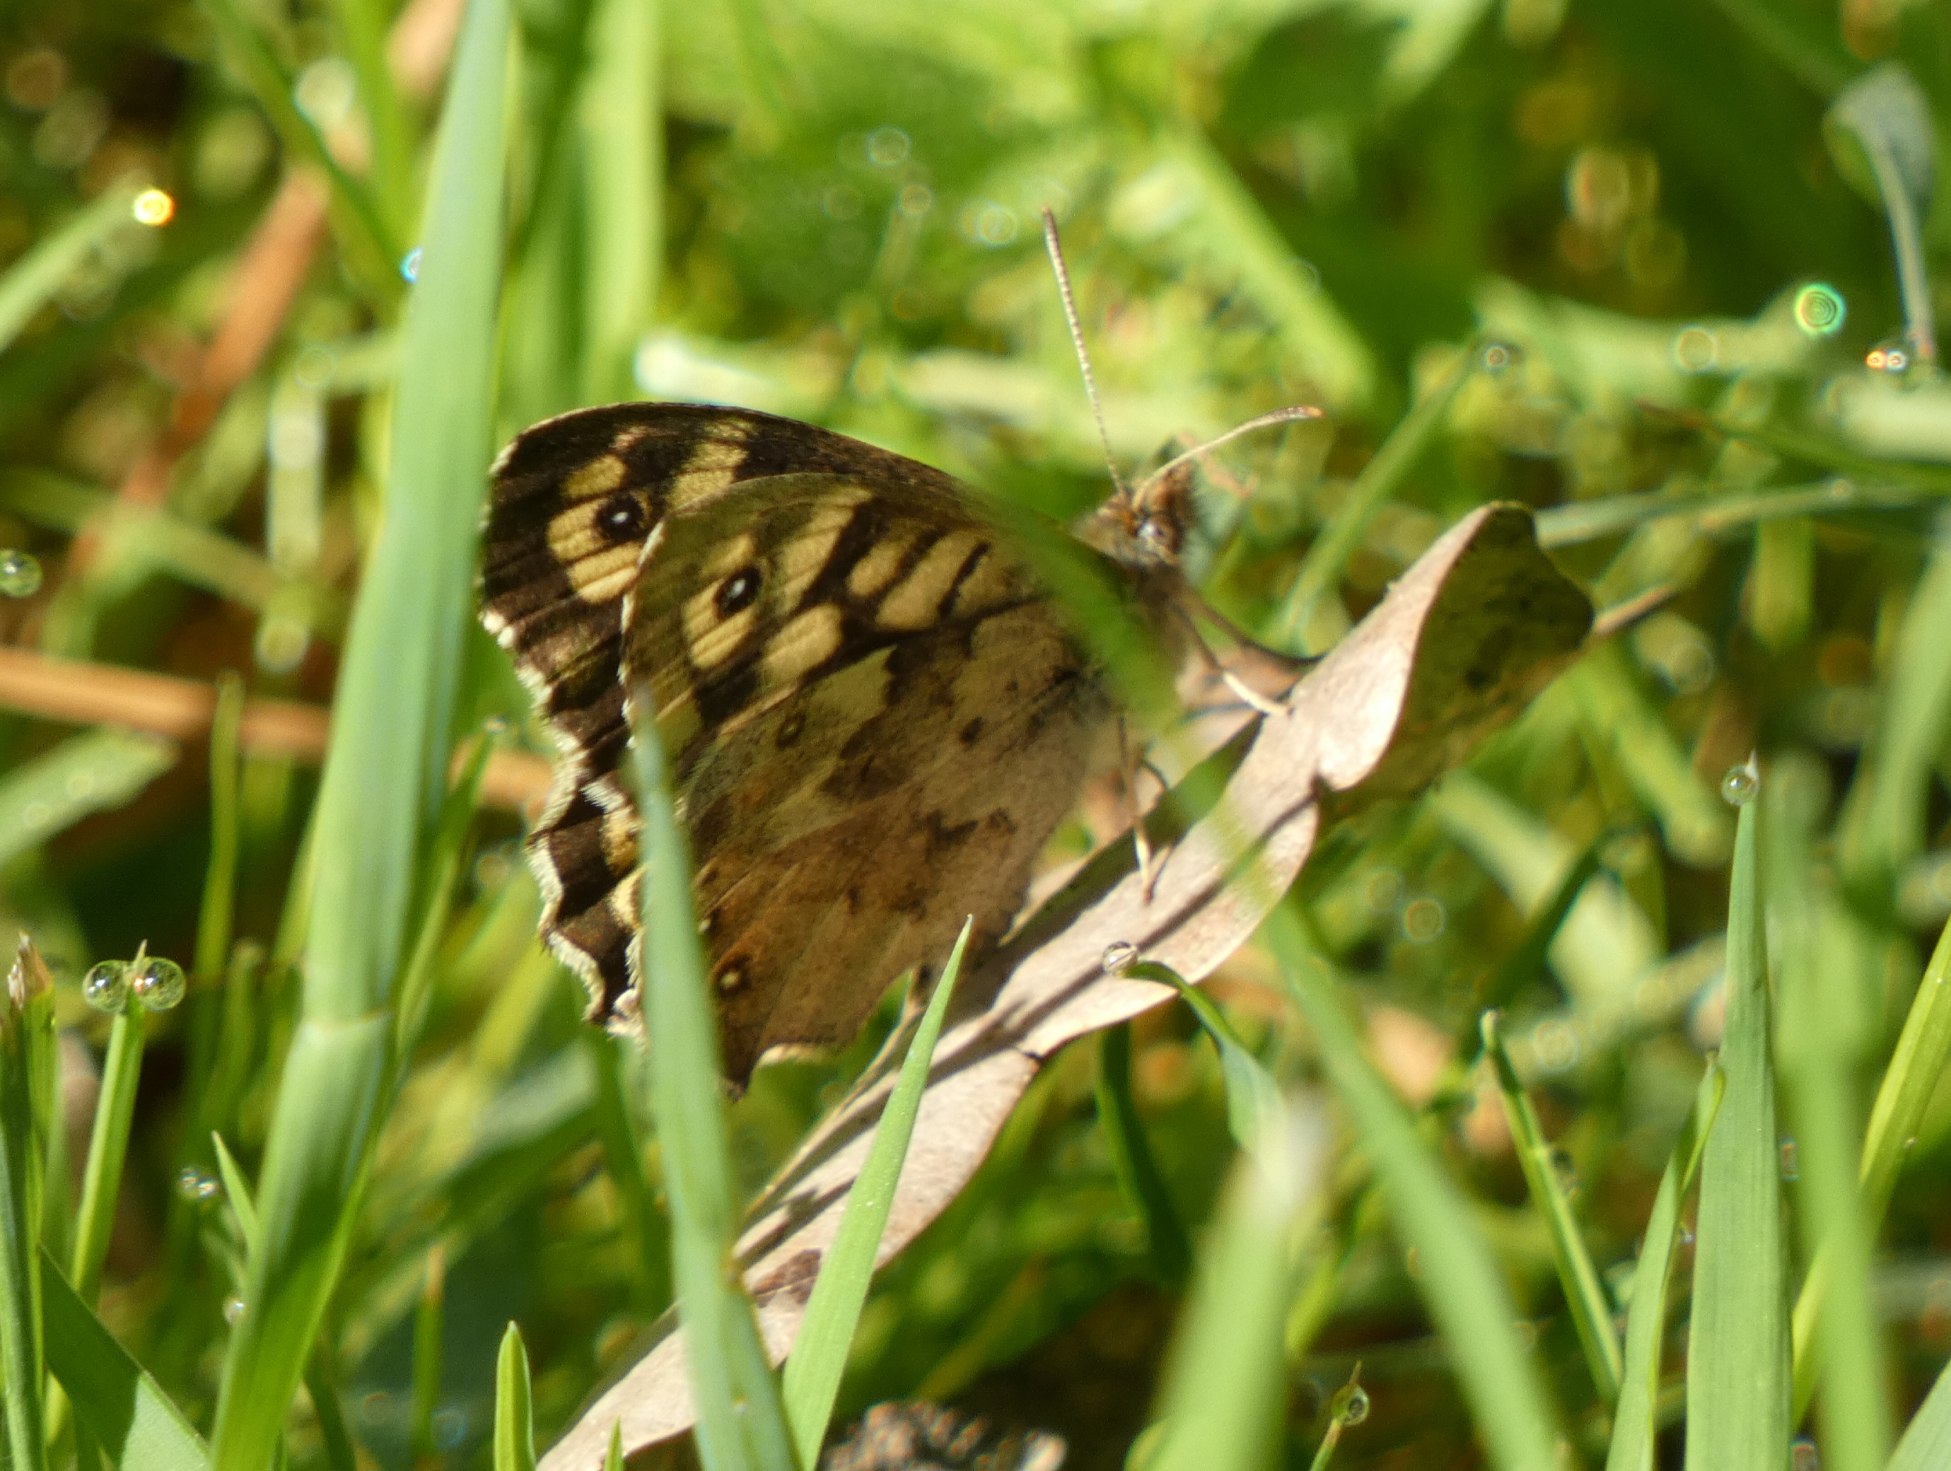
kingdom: Animalia
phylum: Arthropoda
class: Insecta
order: Lepidoptera
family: Nymphalidae
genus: Pararge
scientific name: Pararge aegeria
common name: Skovrandøje
